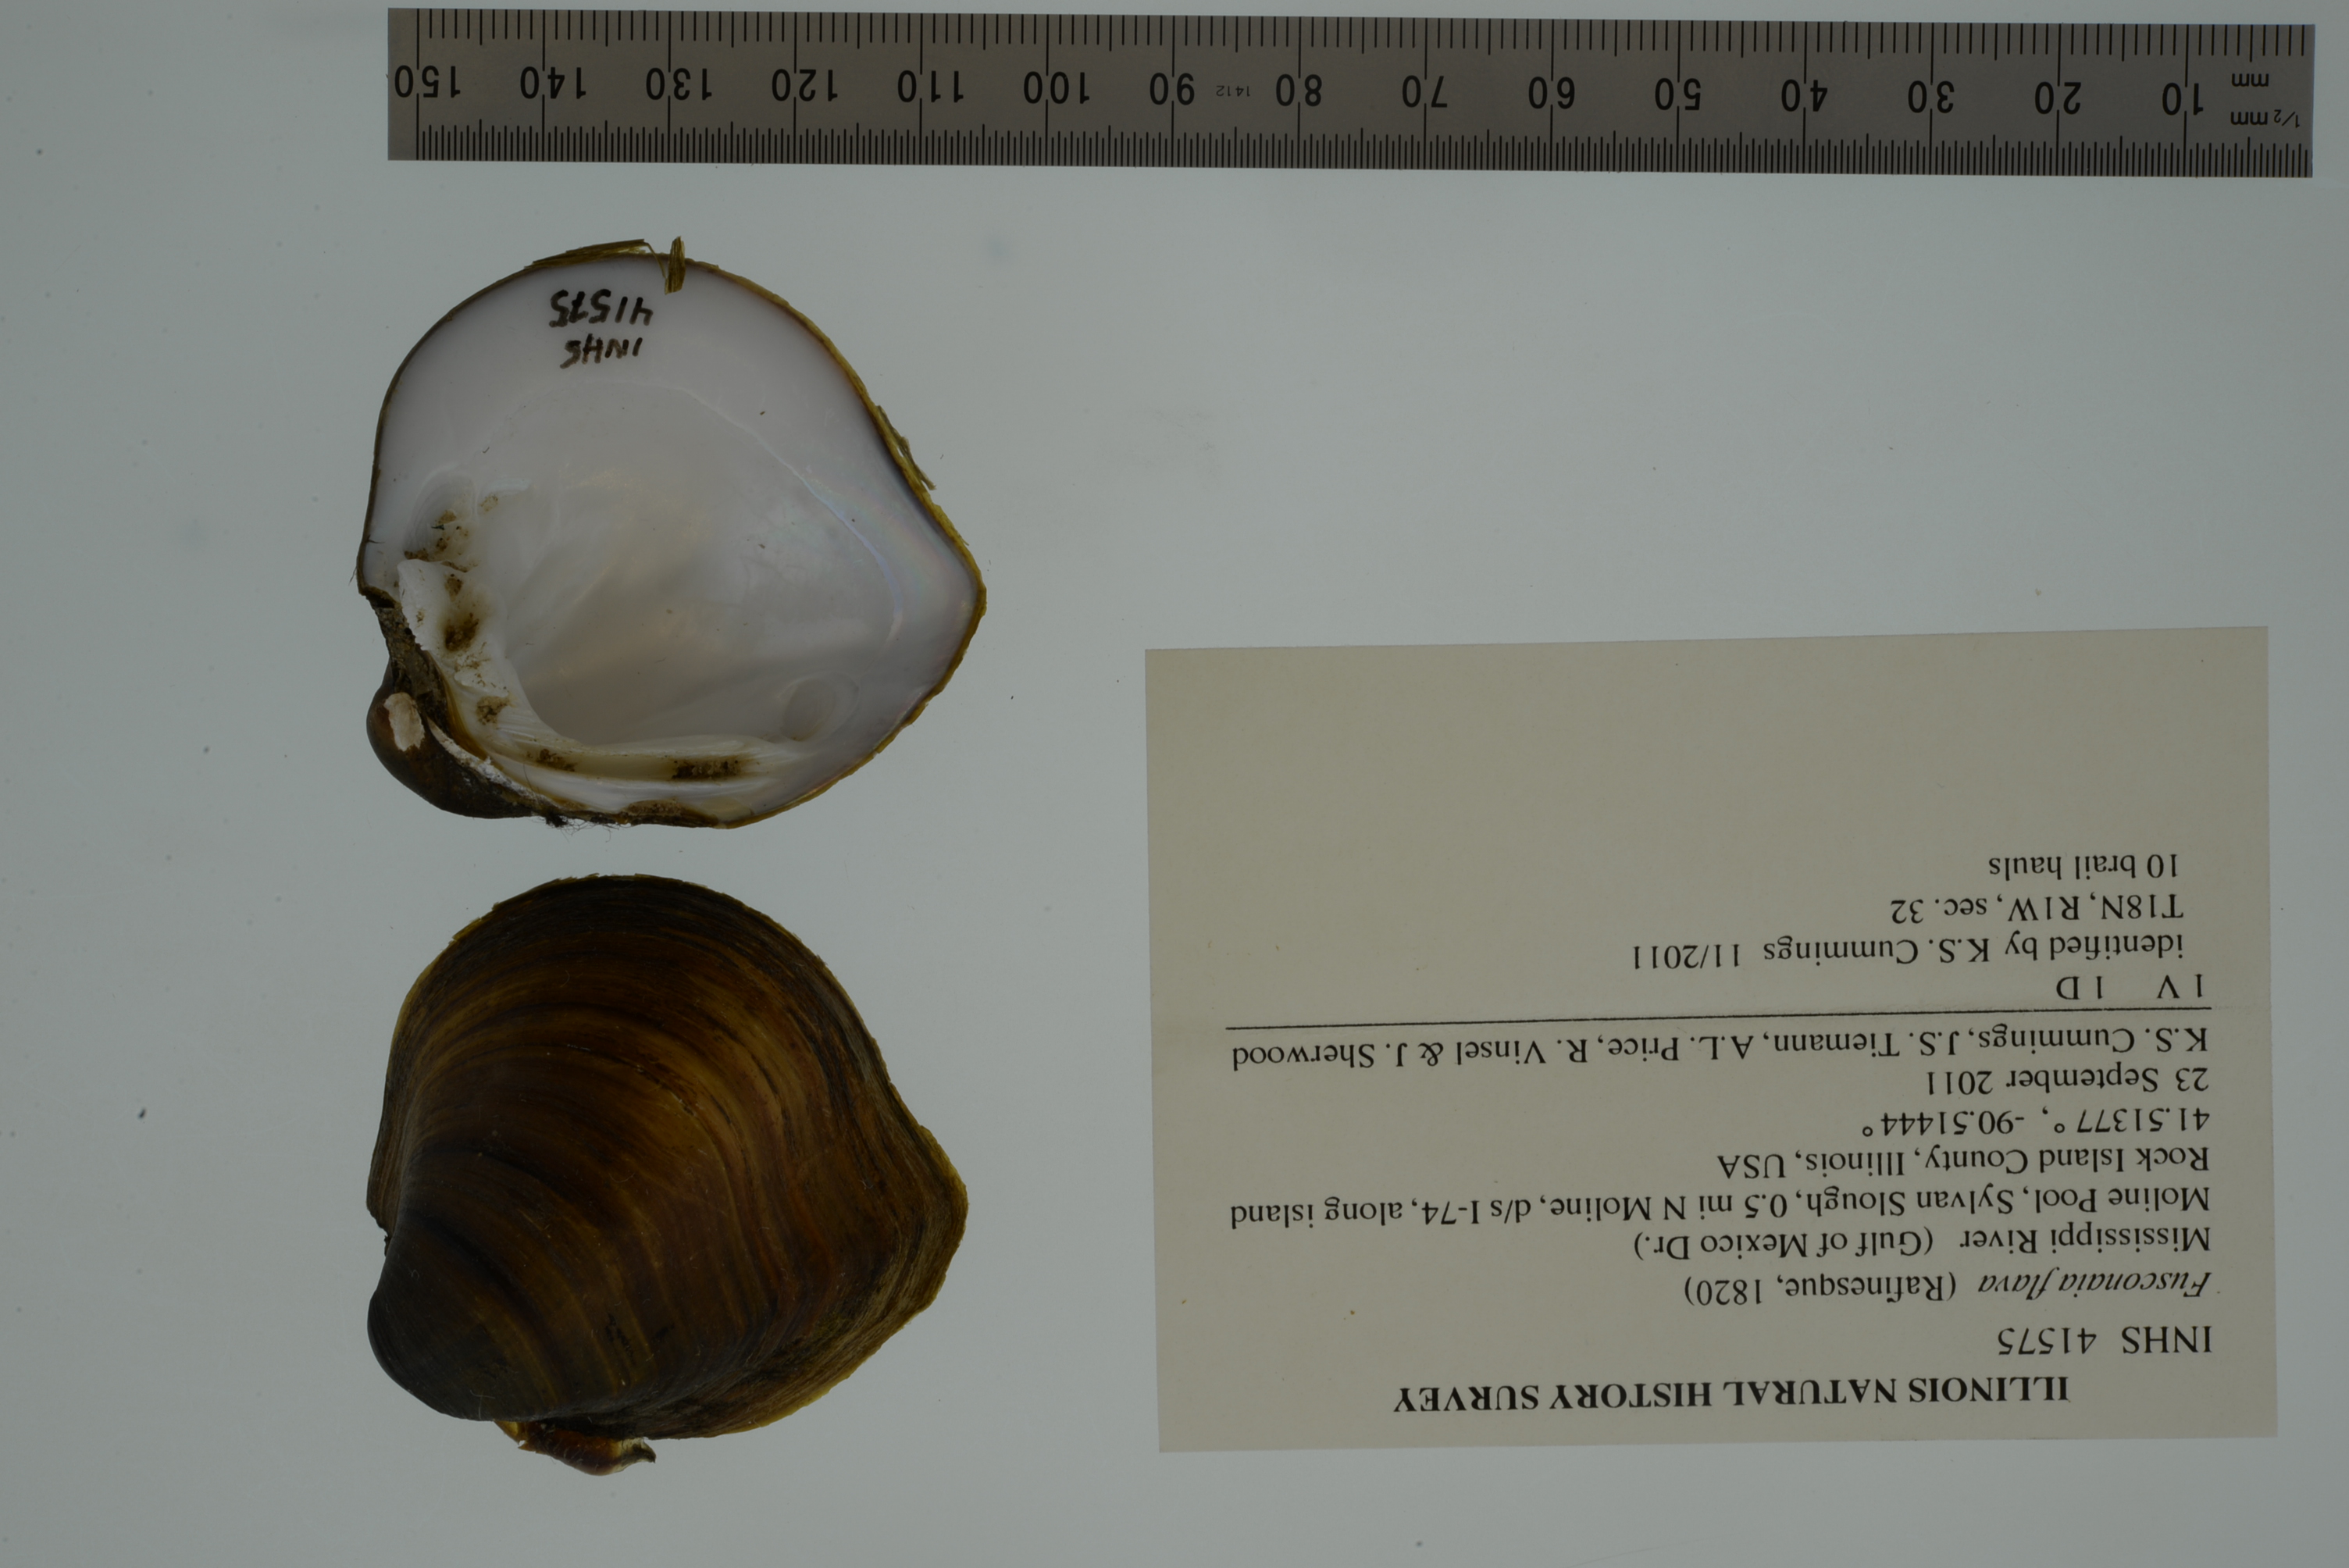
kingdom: Animalia
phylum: Mollusca
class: Bivalvia
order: Unionida
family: Unionidae
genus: Fusconaia
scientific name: Fusconaia flava
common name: Wabash pigtoe
